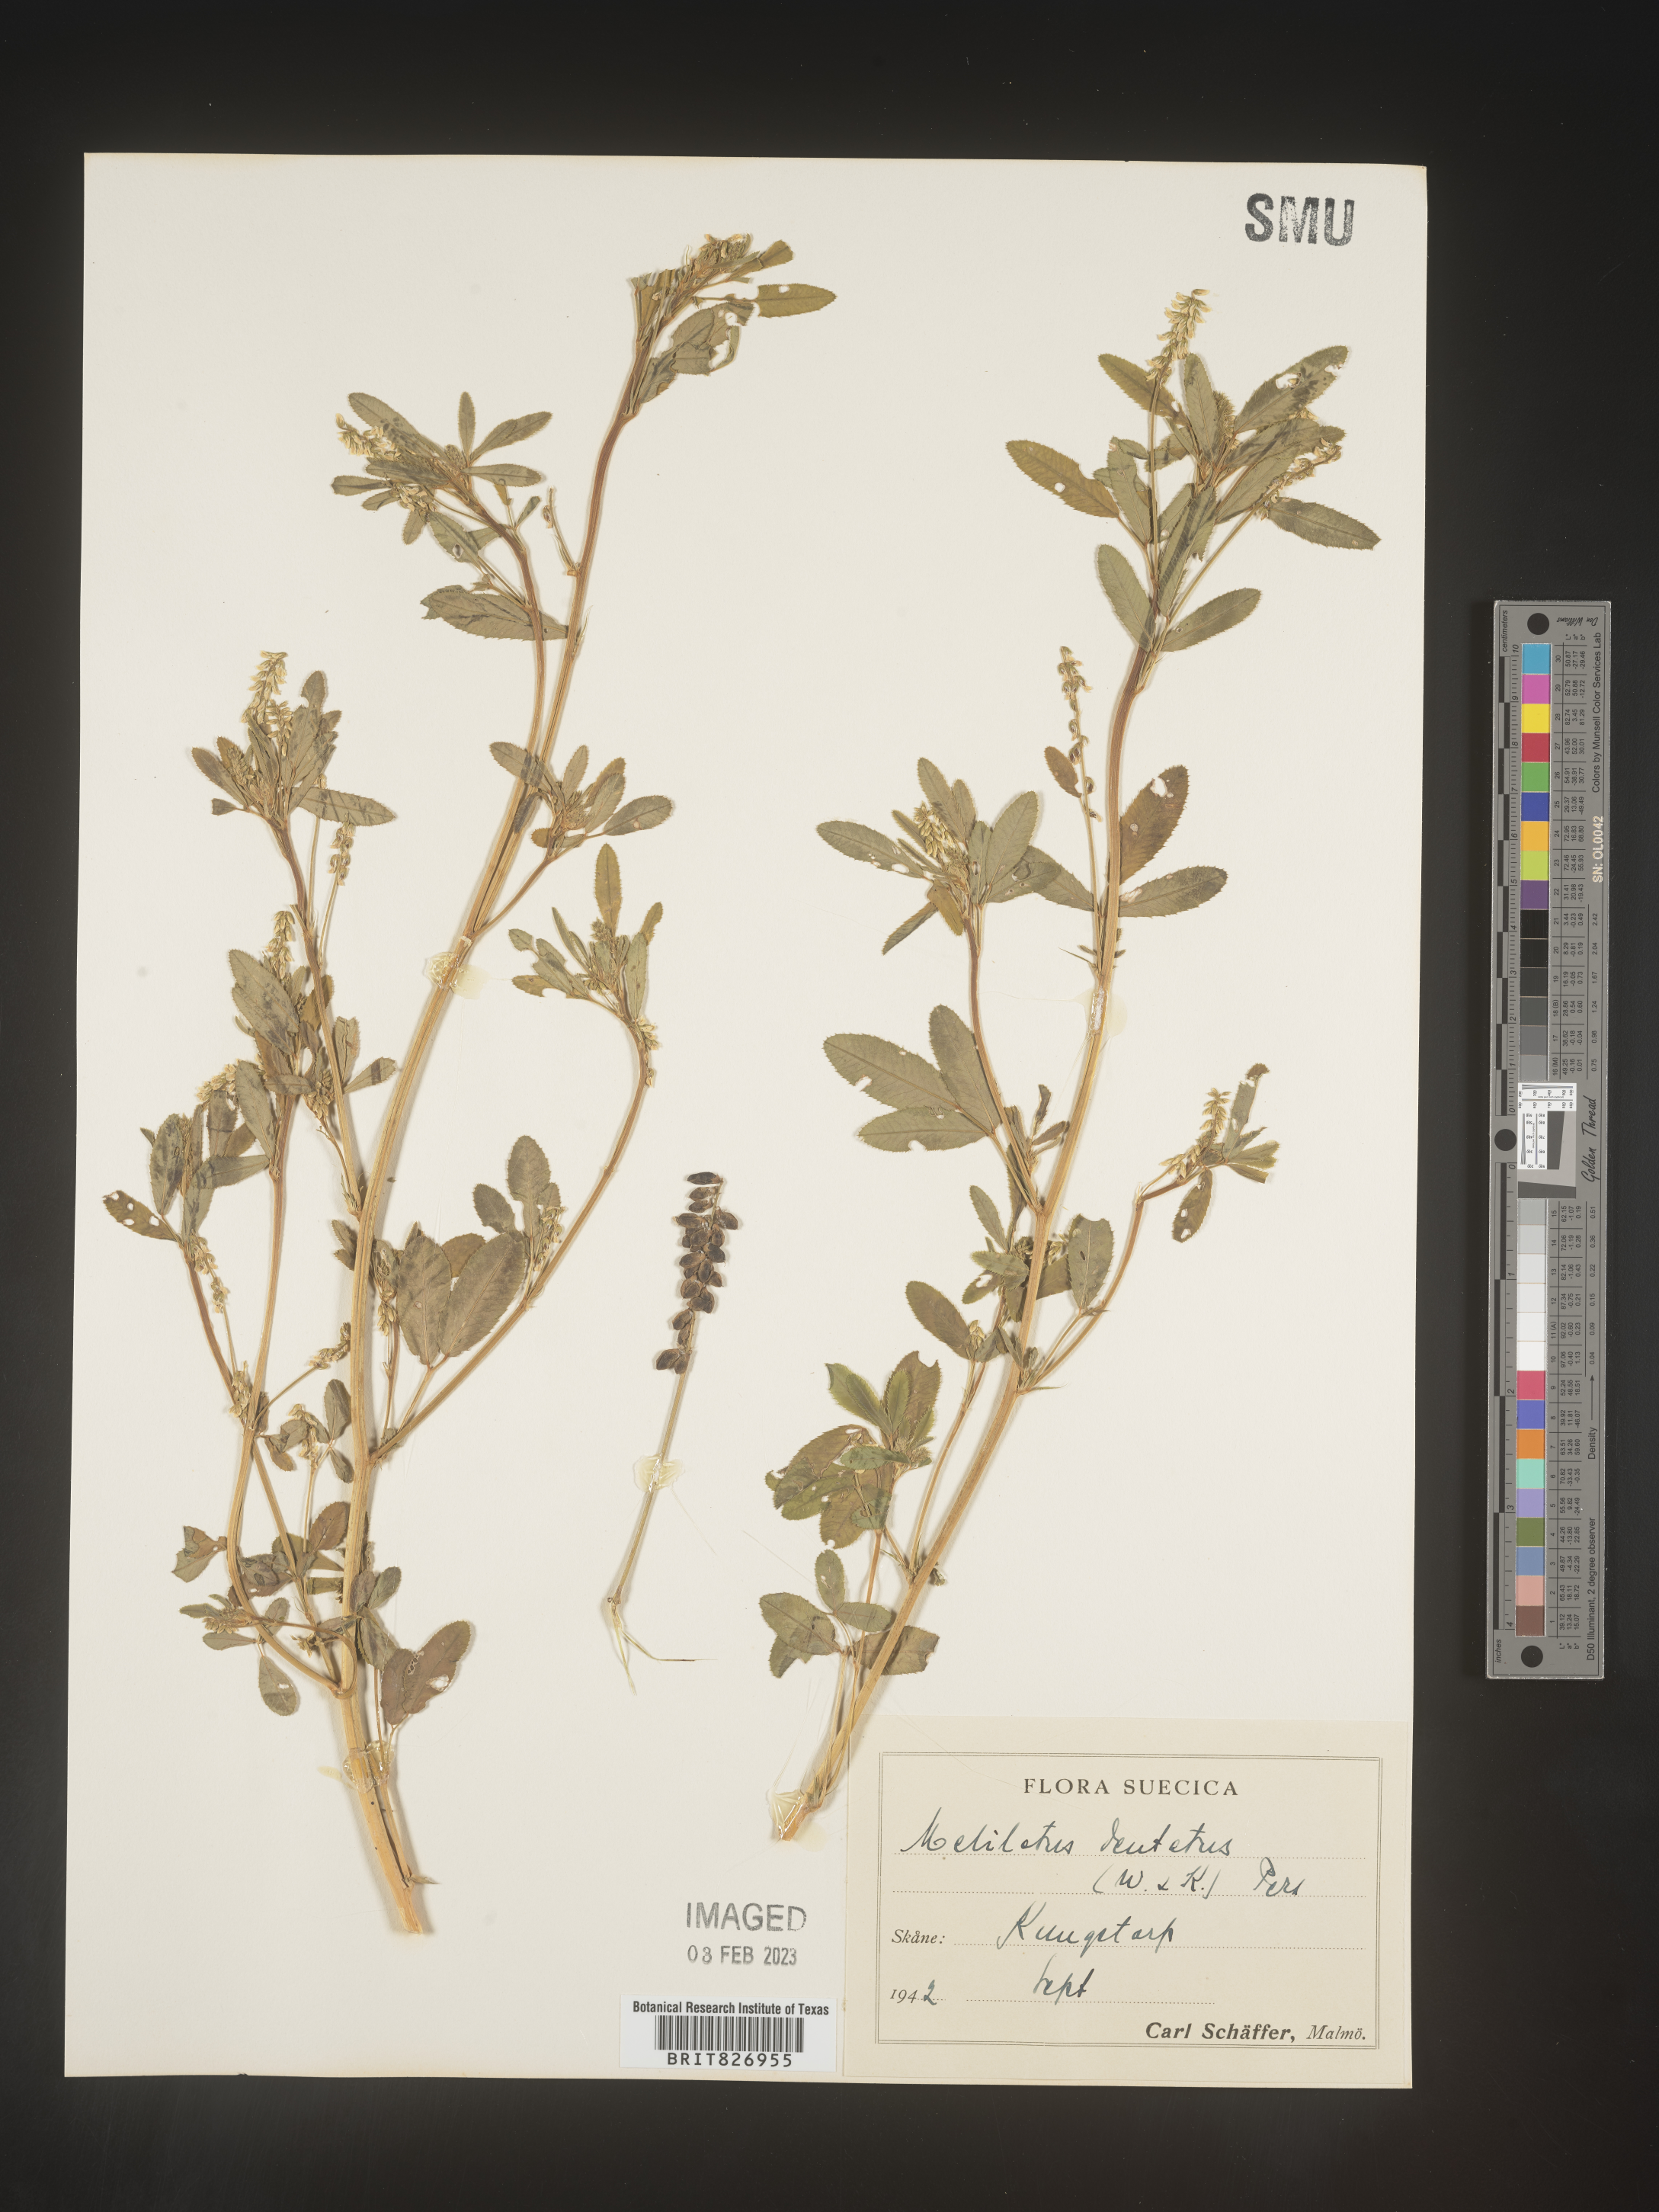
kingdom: Plantae
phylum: Tracheophyta
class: Magnoliopsida
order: Fabales
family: Fabaceae
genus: Melilotus
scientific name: Melilotus
